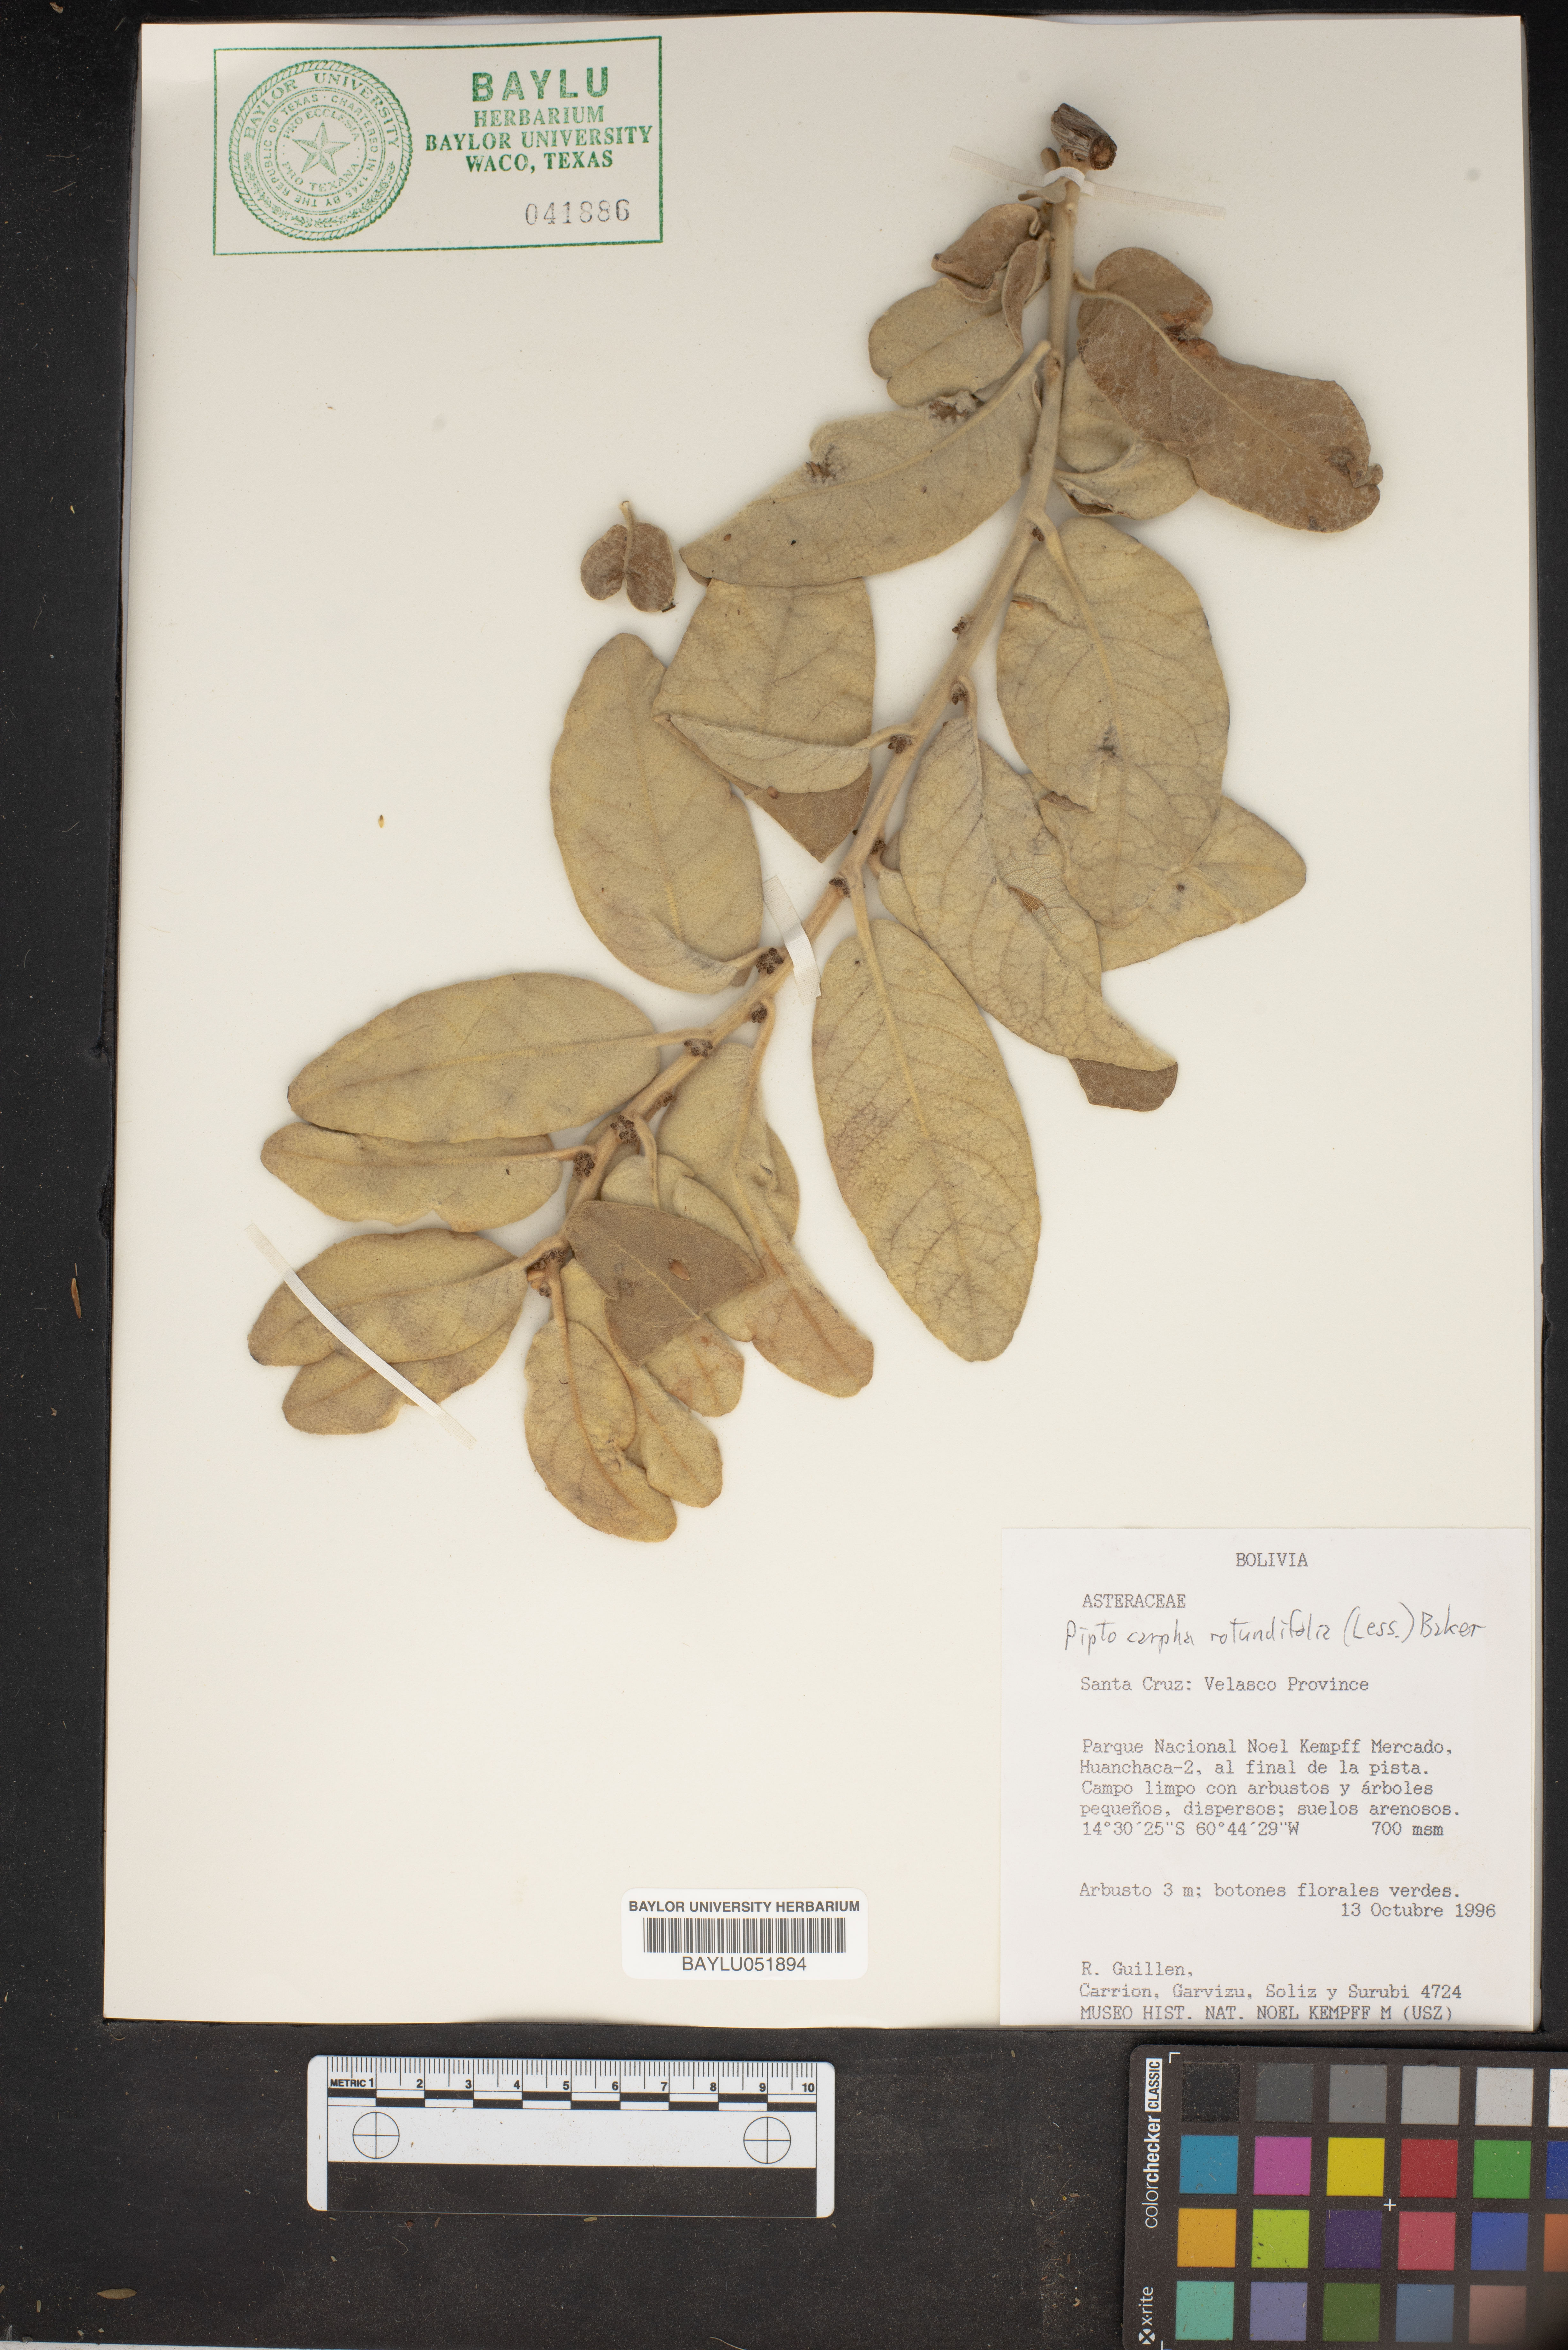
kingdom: Plantae
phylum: Tracheophyta
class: Magnoliopsida
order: Asterales
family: Asteraceae
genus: Piptocarpha
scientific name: Piptocarpha rotundifolia
